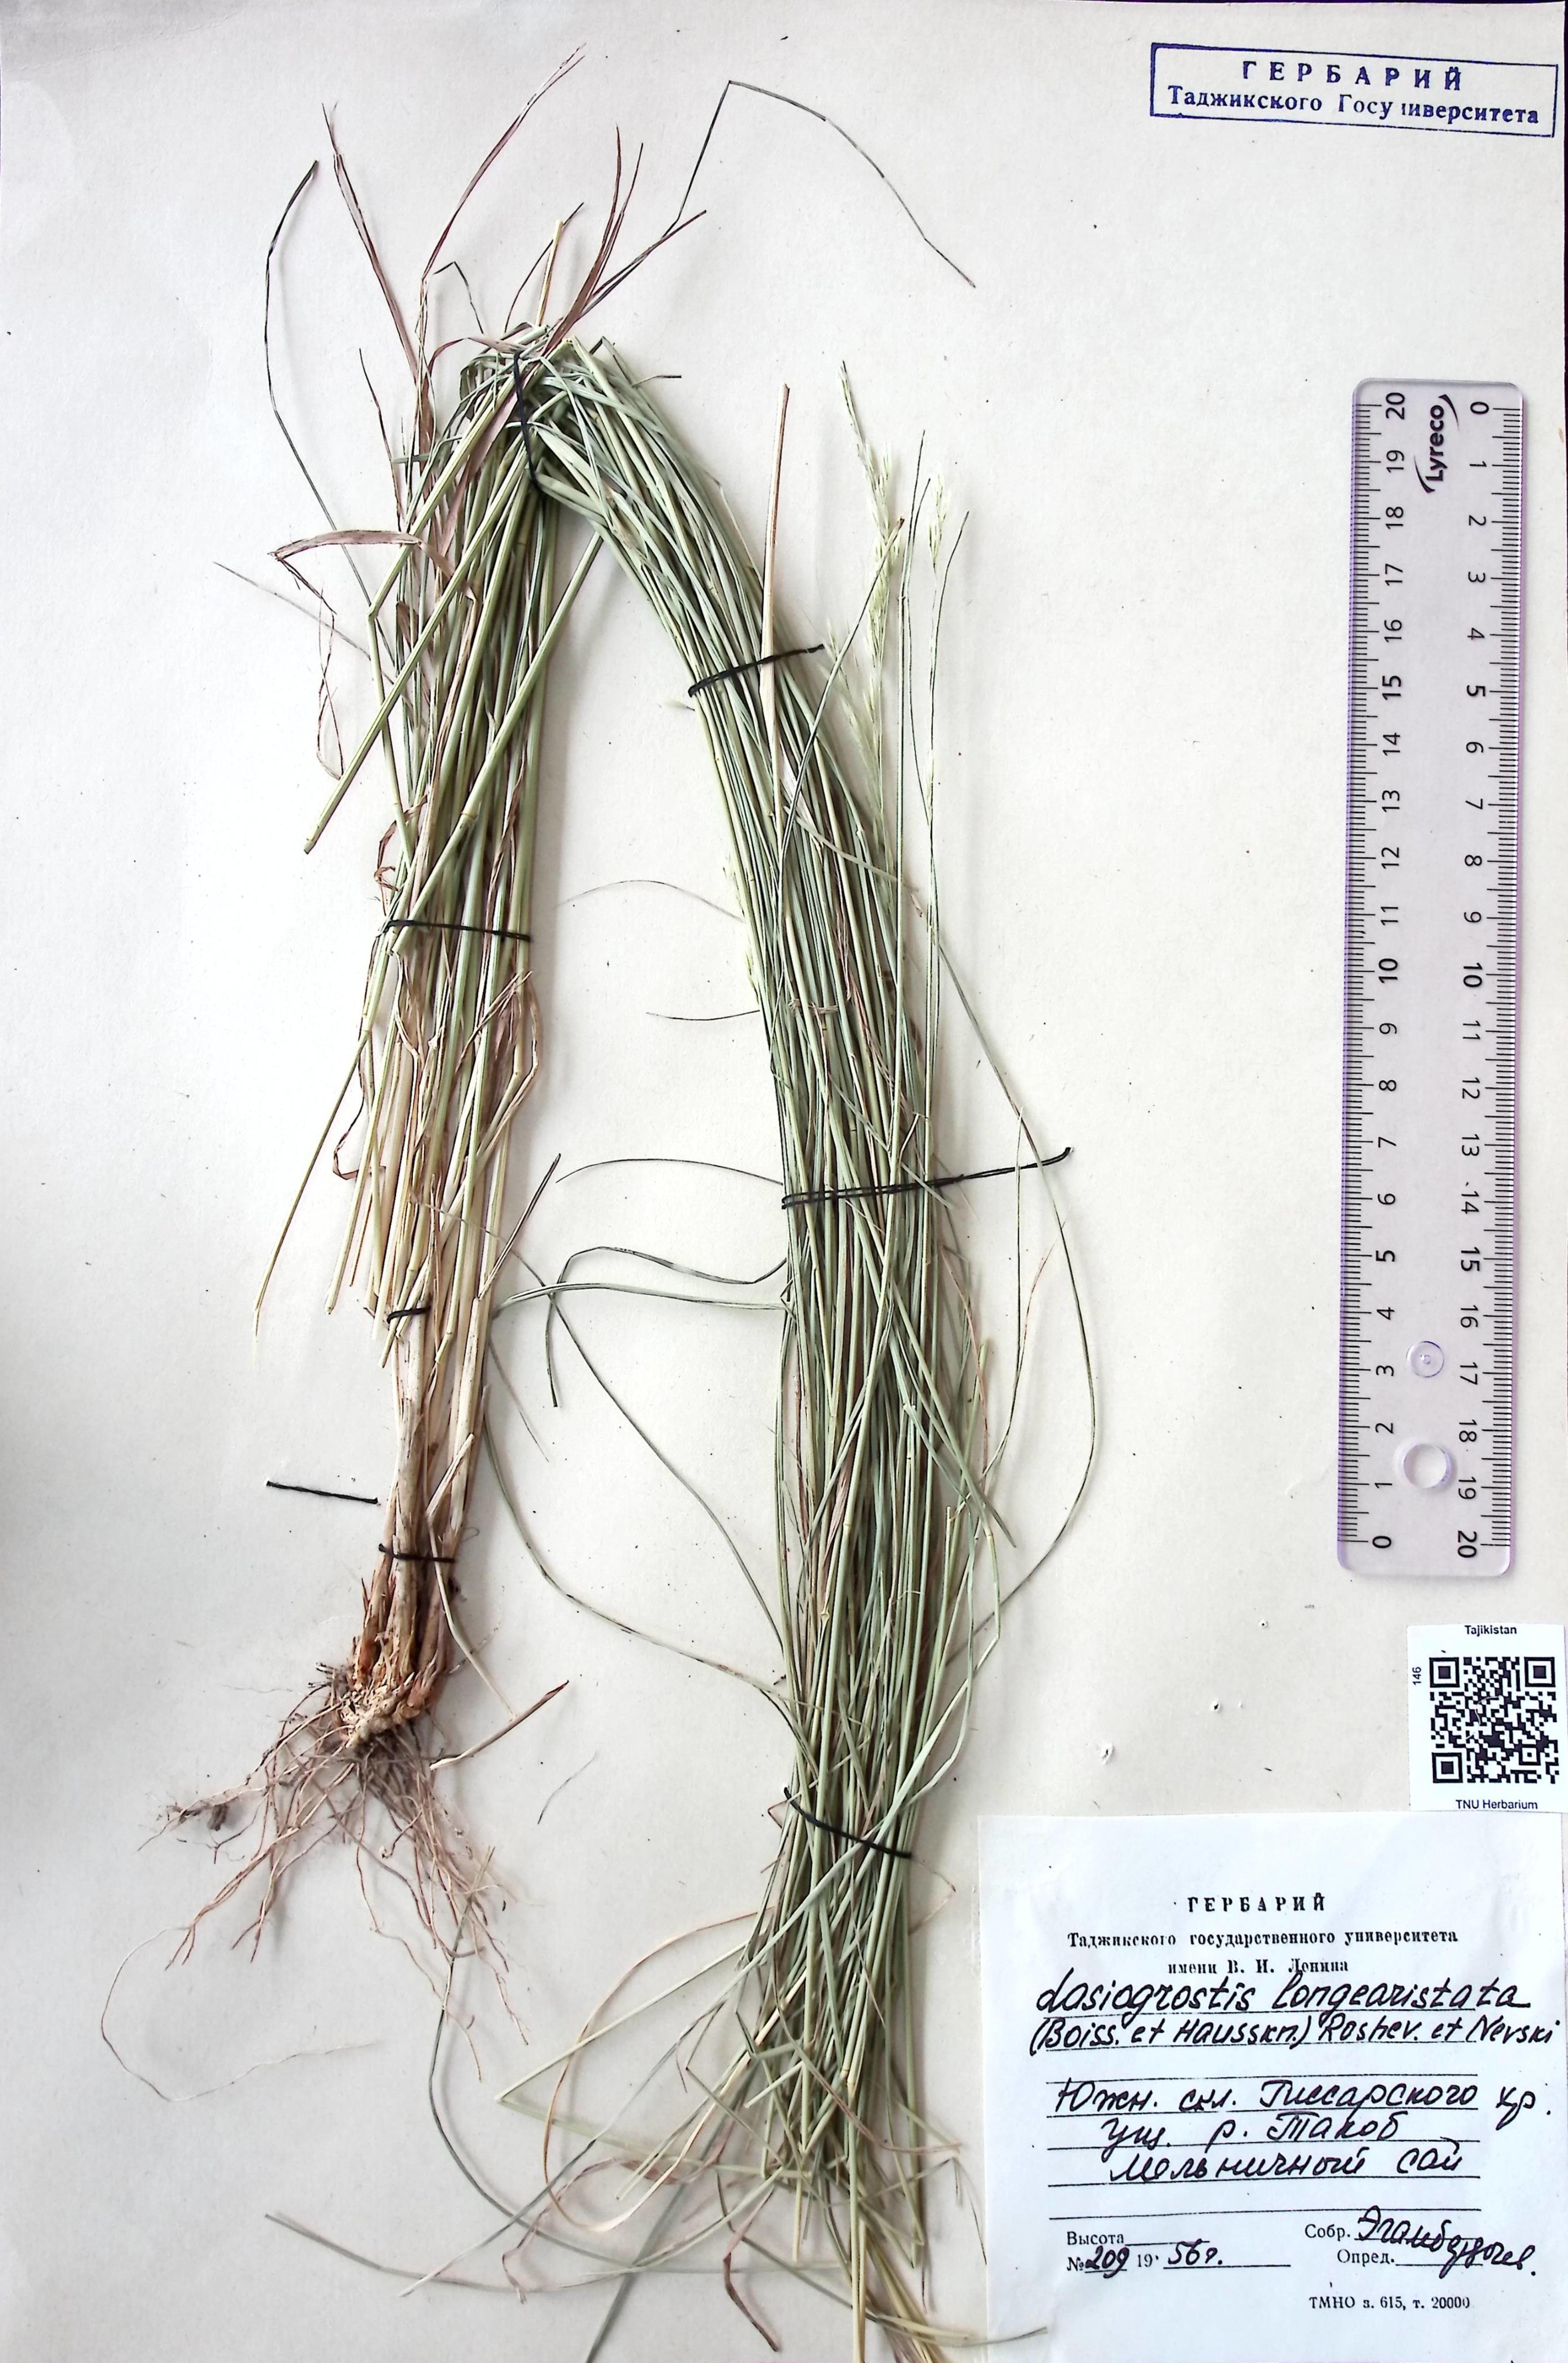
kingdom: Plantae
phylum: Tracheophyta
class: Liliopsida
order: Poales
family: Poaceae
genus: Achnatherum
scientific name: Achnatherum turcomanicum
